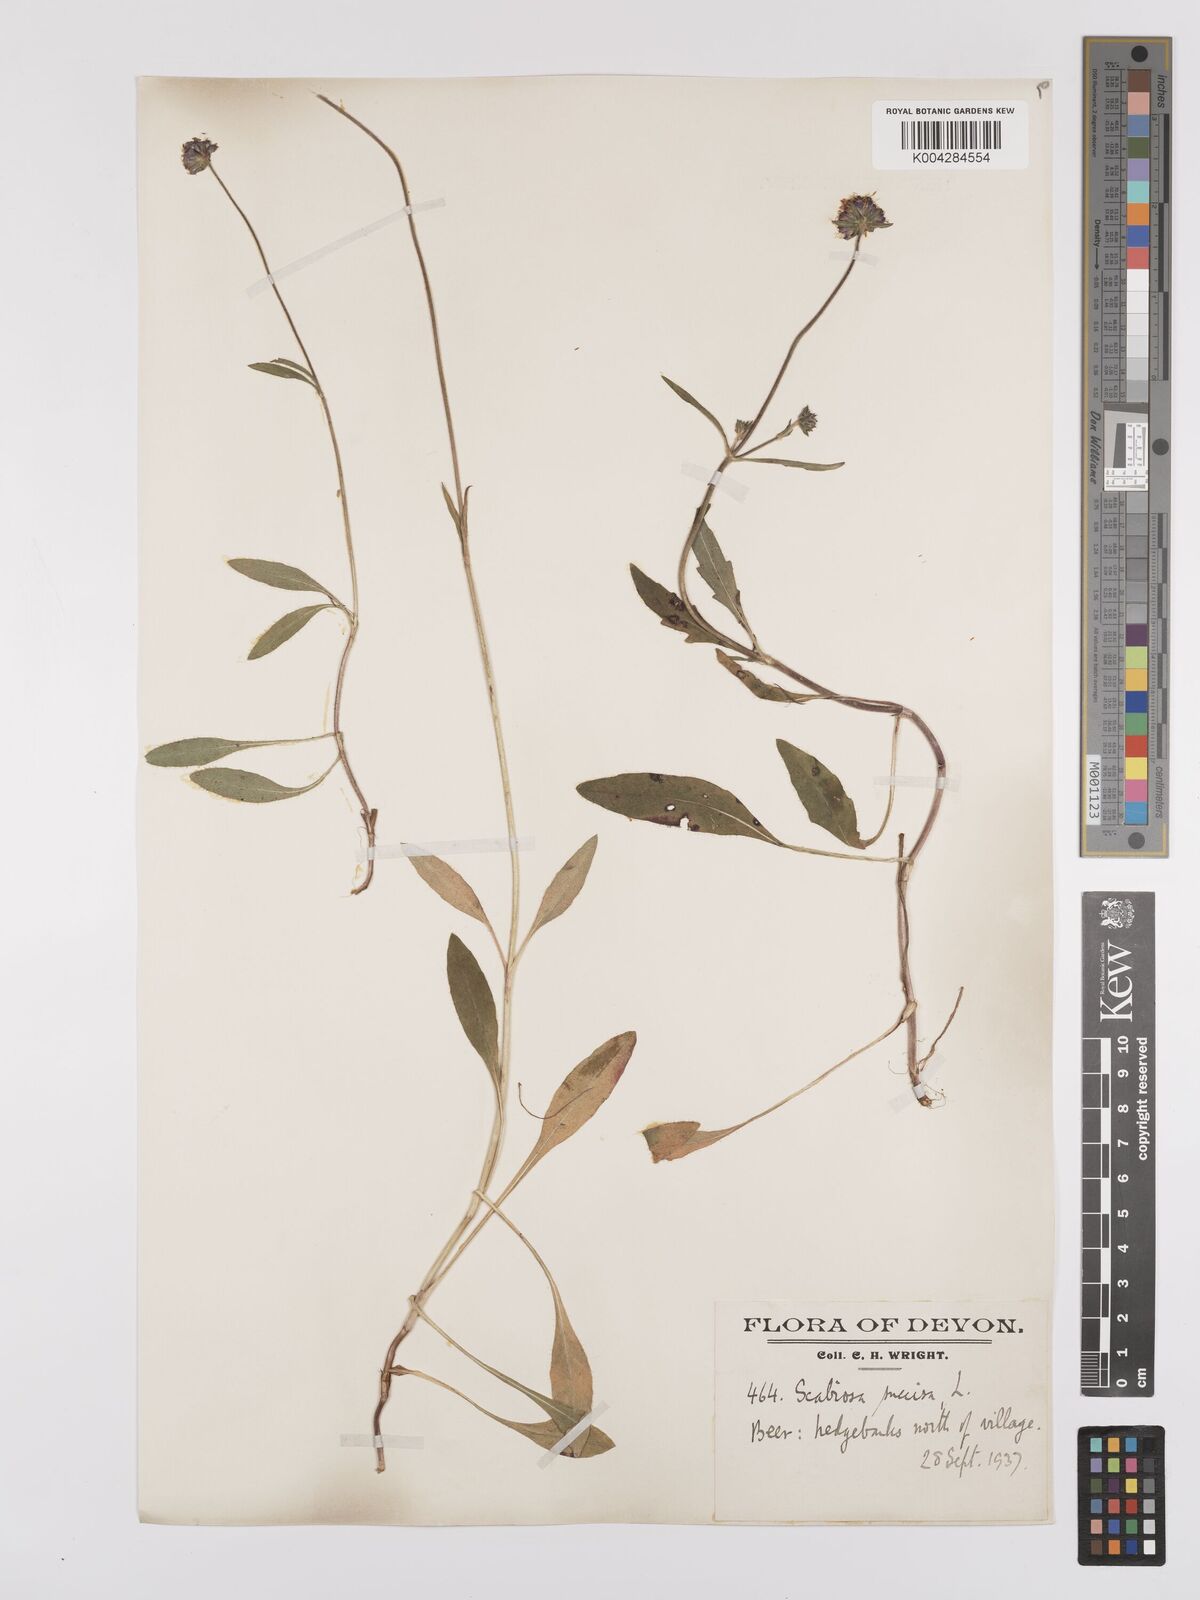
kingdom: Plantae
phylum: Tracheophyta
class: Magnoliopsida
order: Dipsacales
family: Caprifoliaceae
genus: Succisa
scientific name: Succisa pratensis
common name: Devil's-bit
